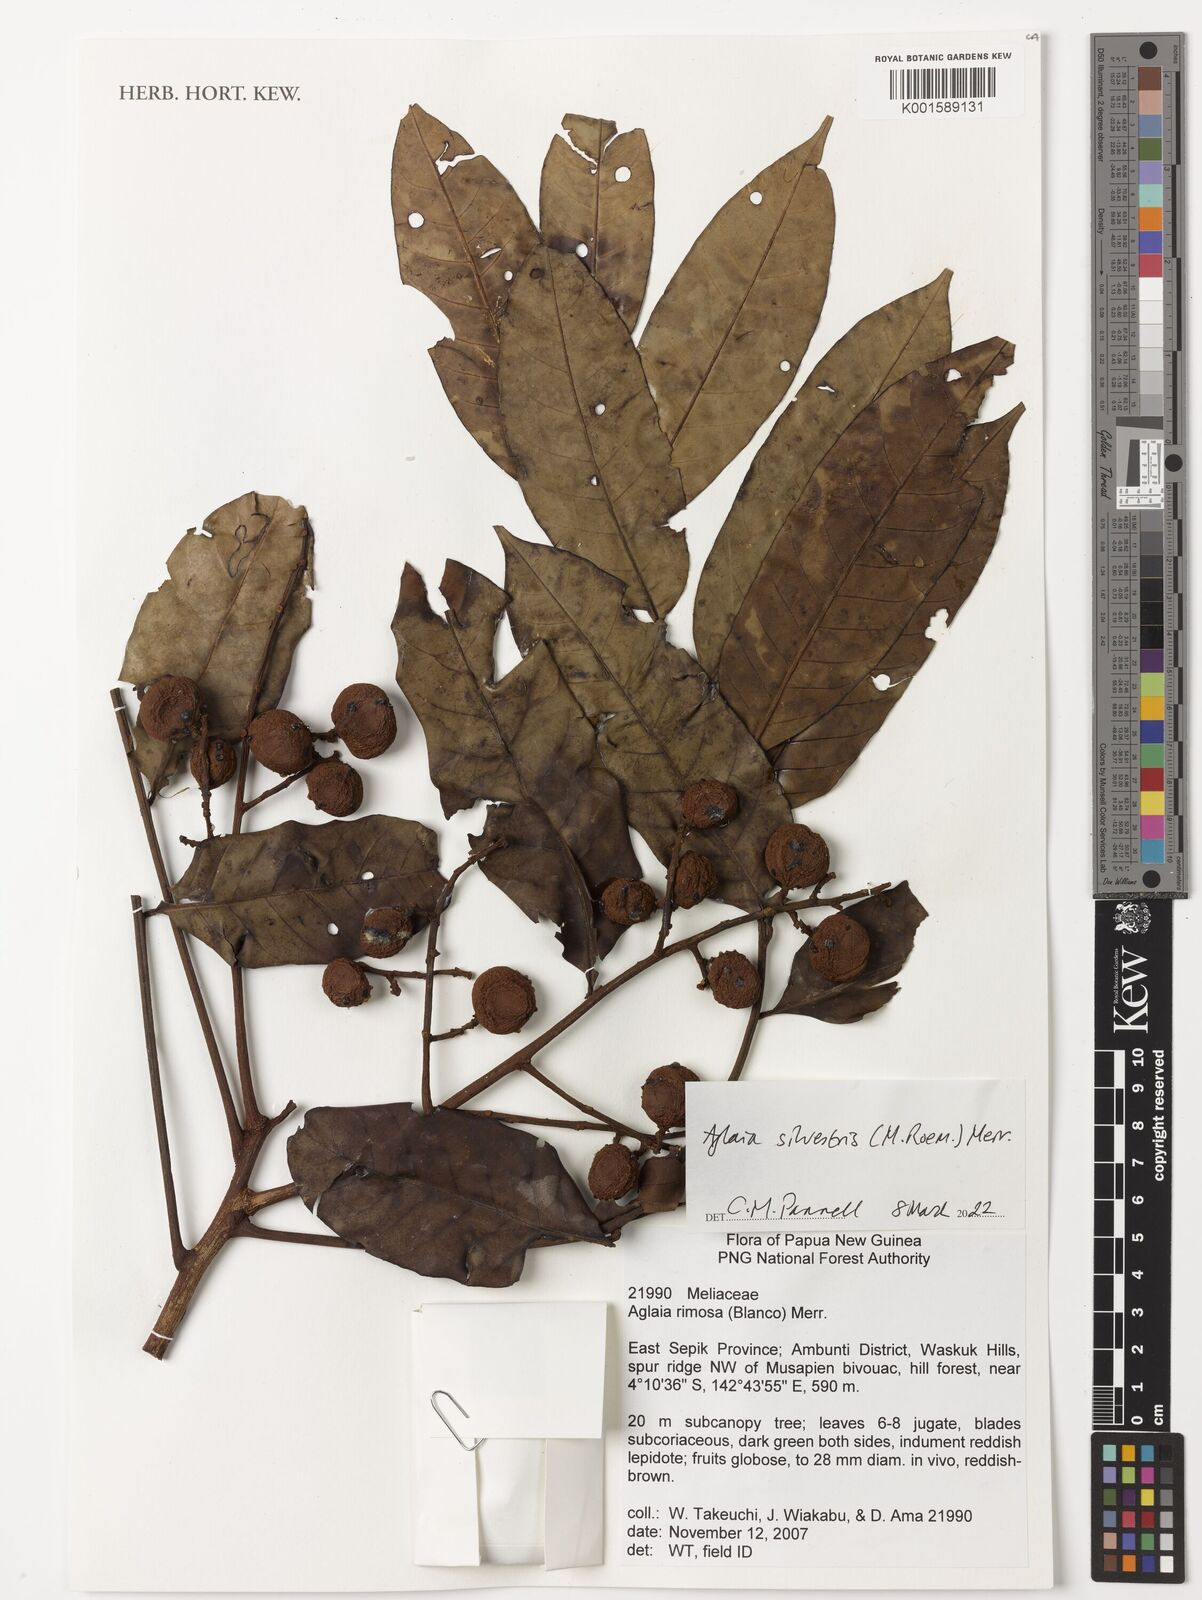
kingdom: Plantae
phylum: Tracheophyta
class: Magnoliopsida
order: Sapindales
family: Meliaceae
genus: Aglaia
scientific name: Aglaia silvestris
